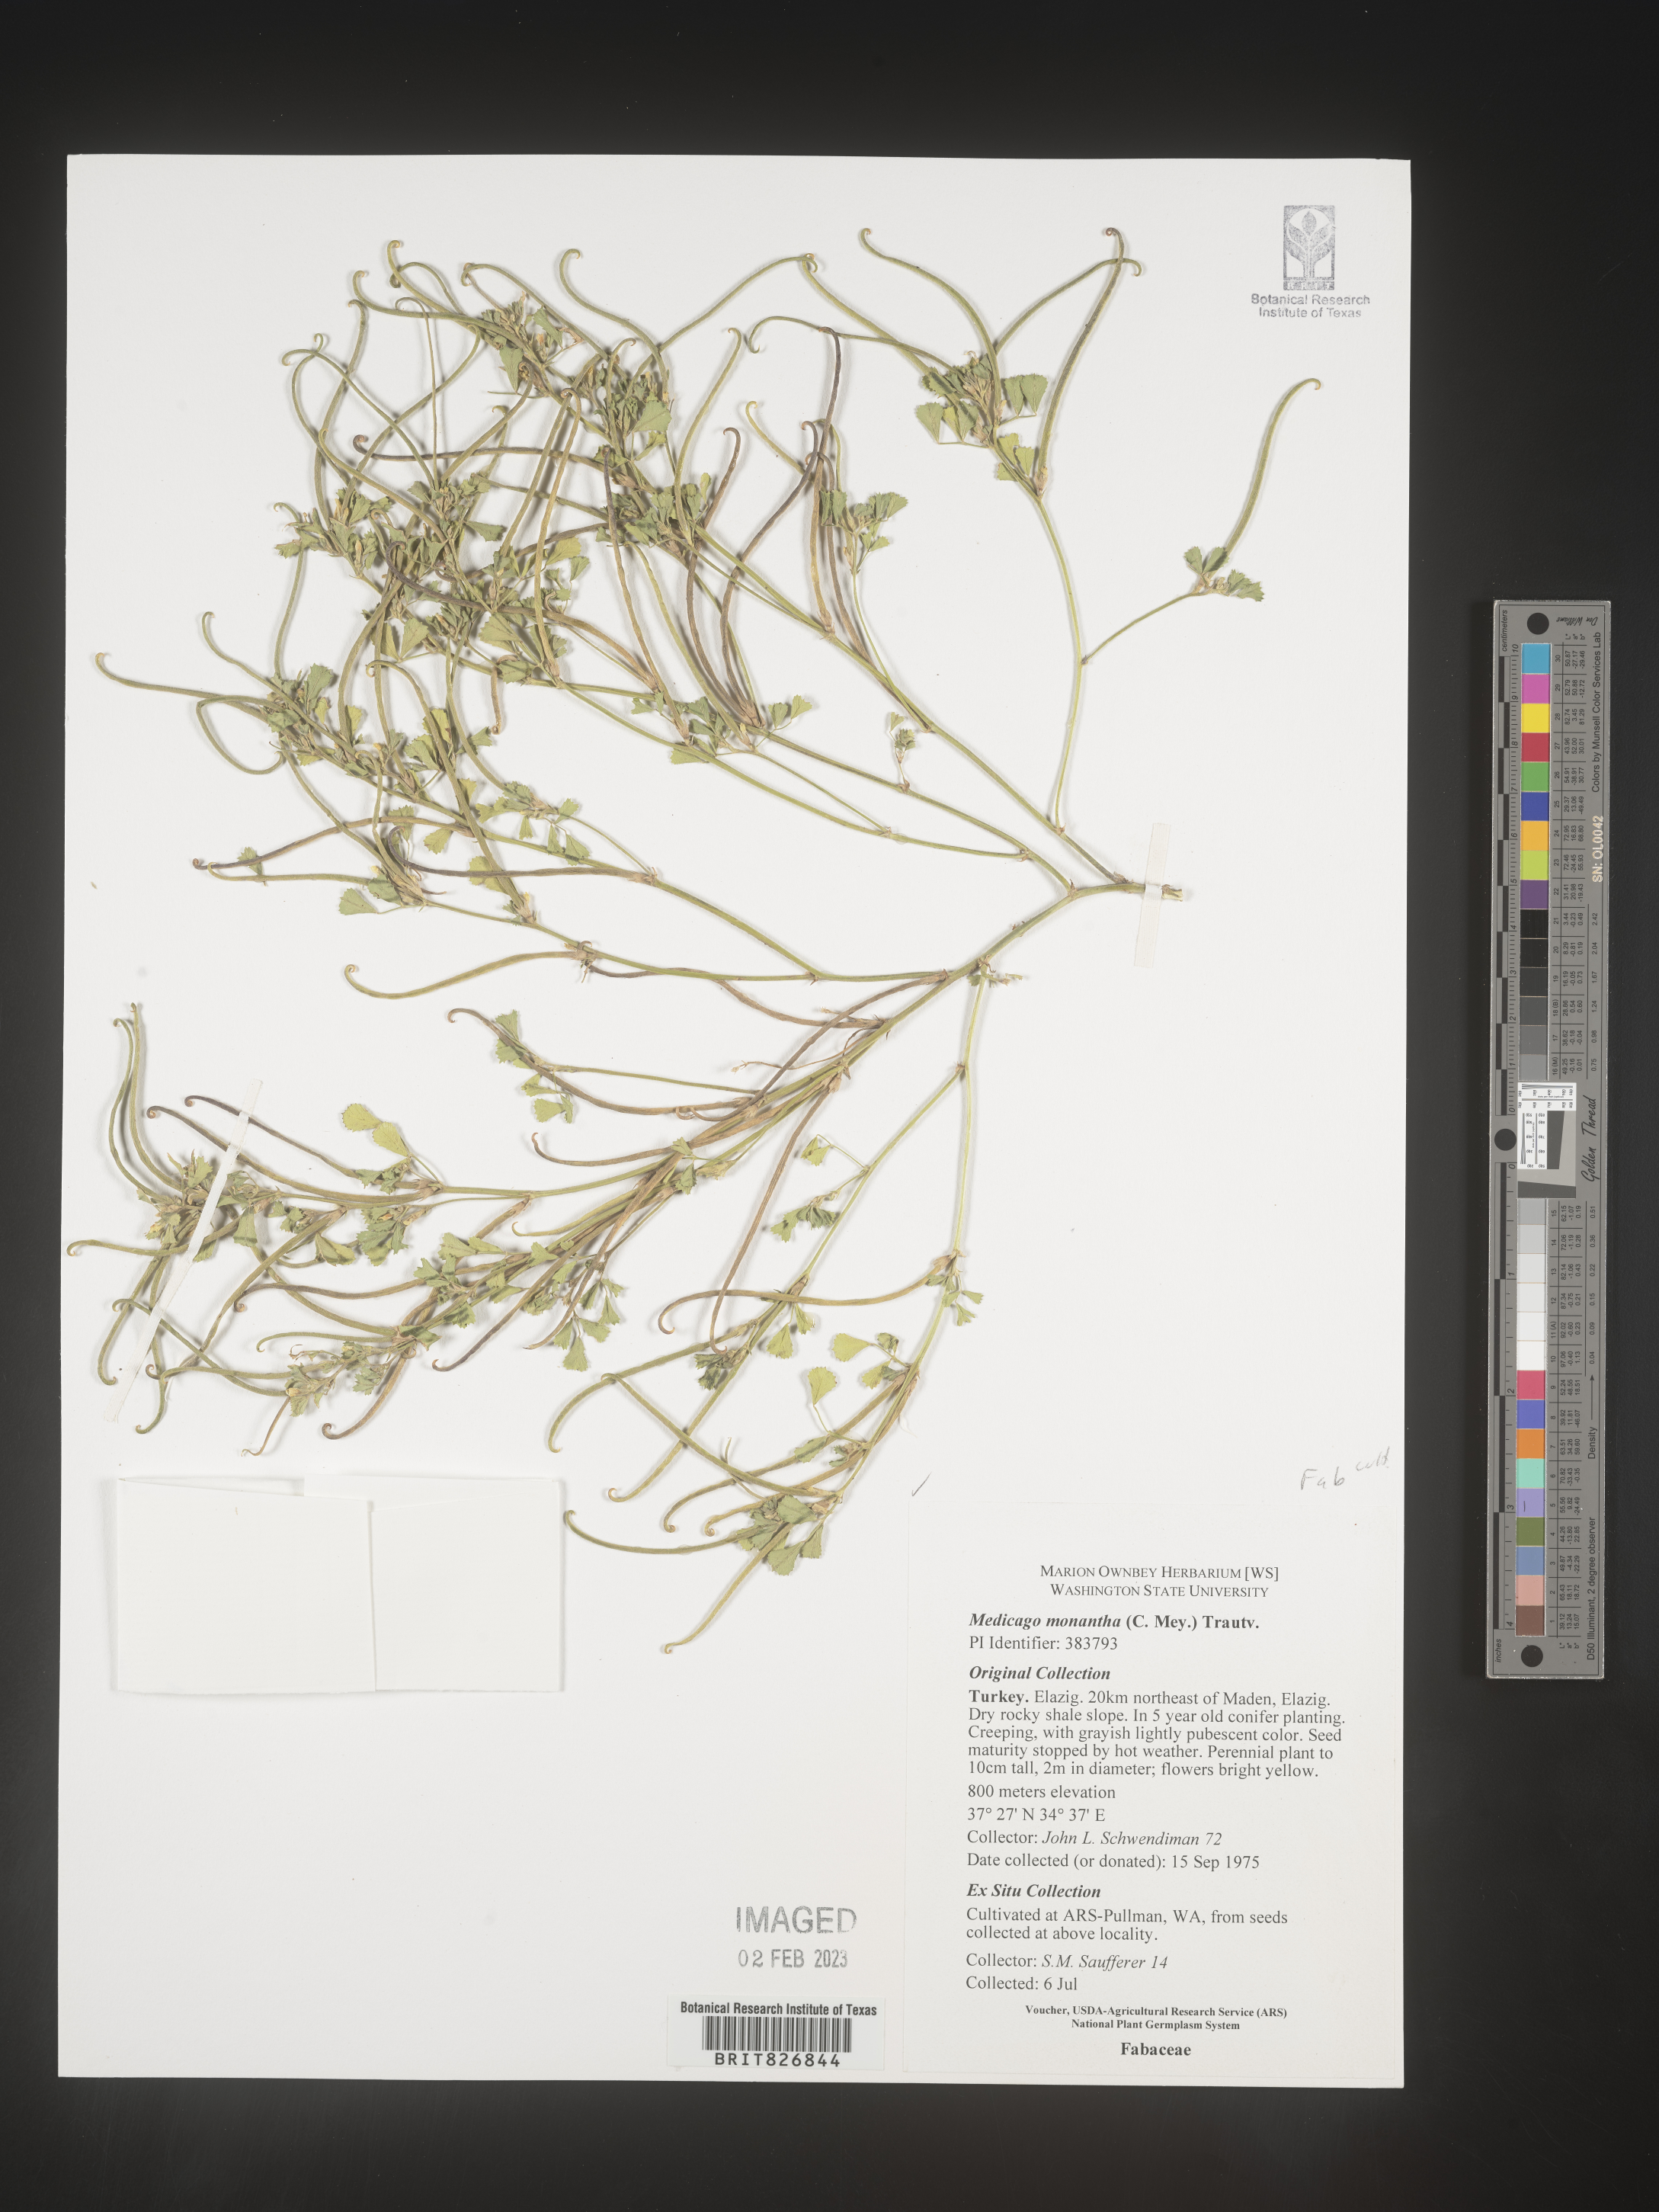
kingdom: Plantae
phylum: Tracheophyta
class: Magnoliopsida
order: Fabales
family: Fabaceae
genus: Medicago
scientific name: Medicago
